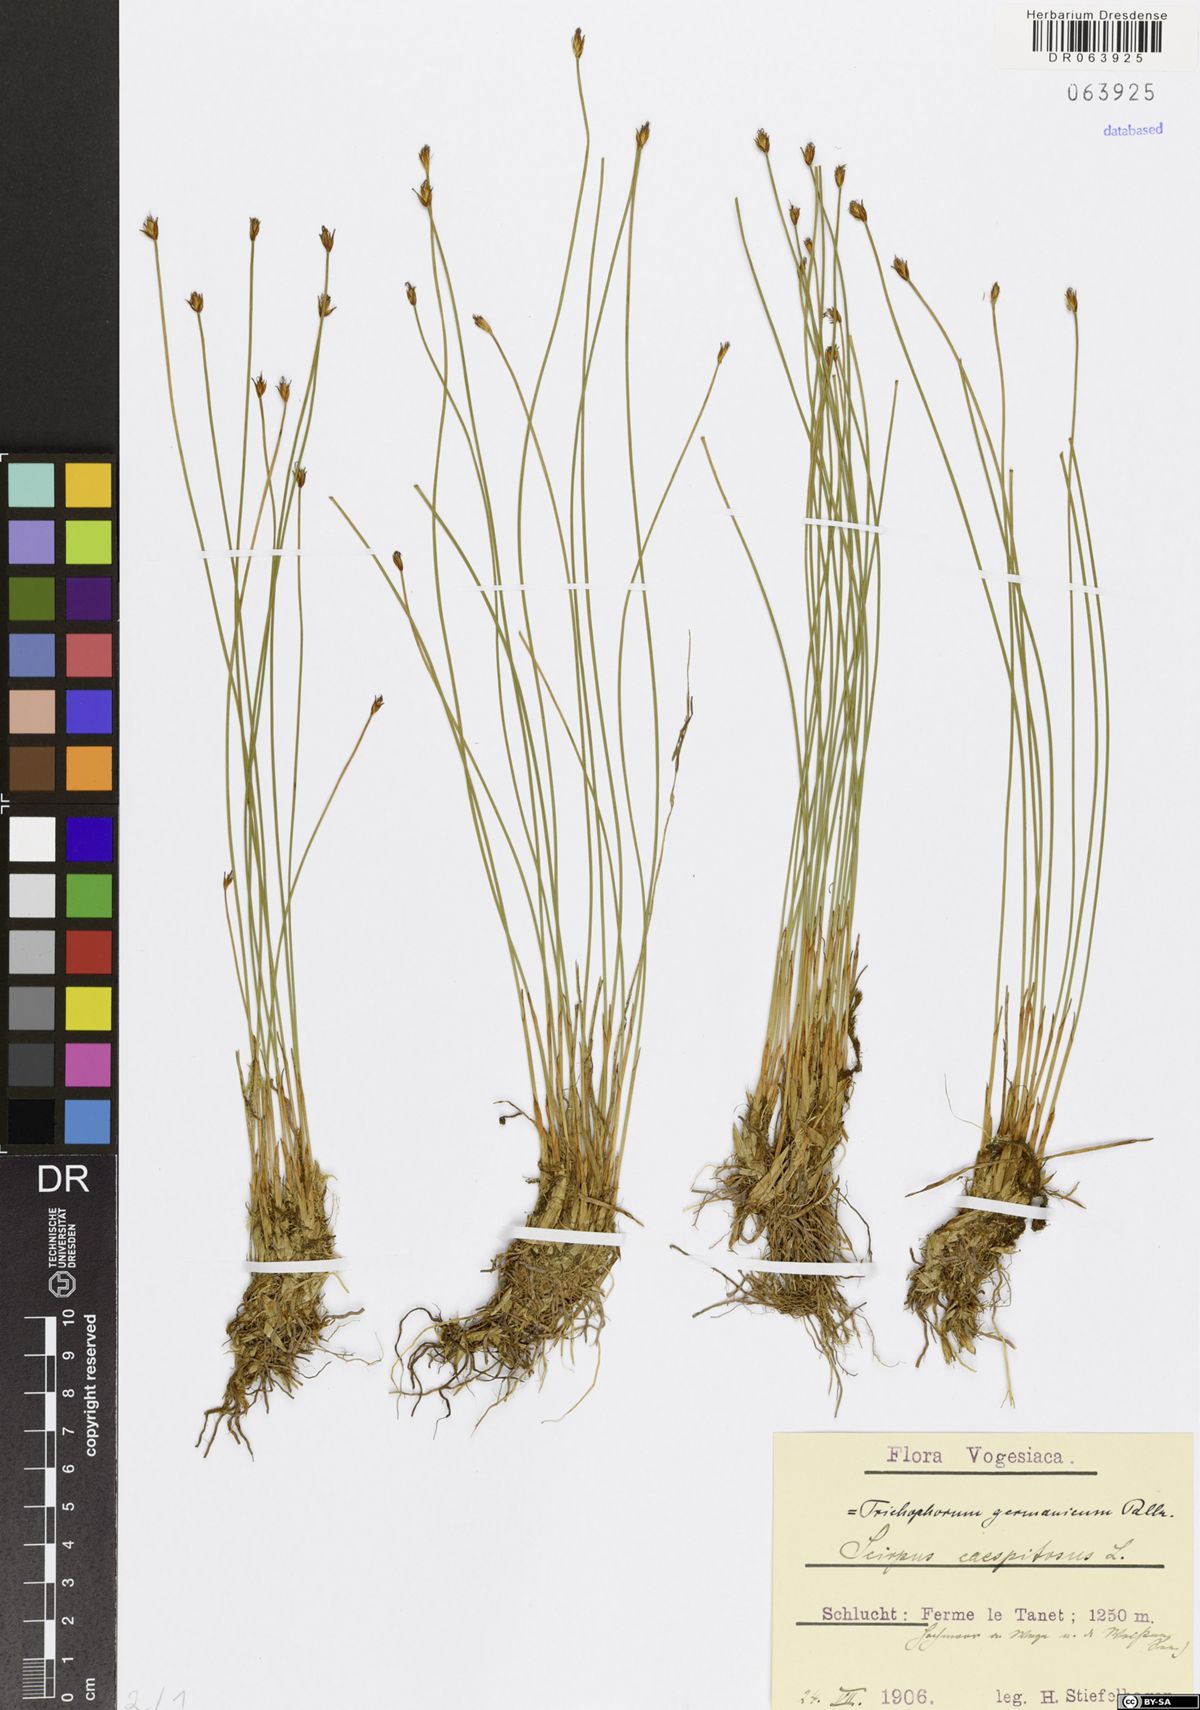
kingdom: Plantae
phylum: Tracheophyta
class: Liliopsida
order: Poales
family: Cyperaceae
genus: Trichophorum
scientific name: Trichophorum cespitosum
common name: Cespitose bulrush
